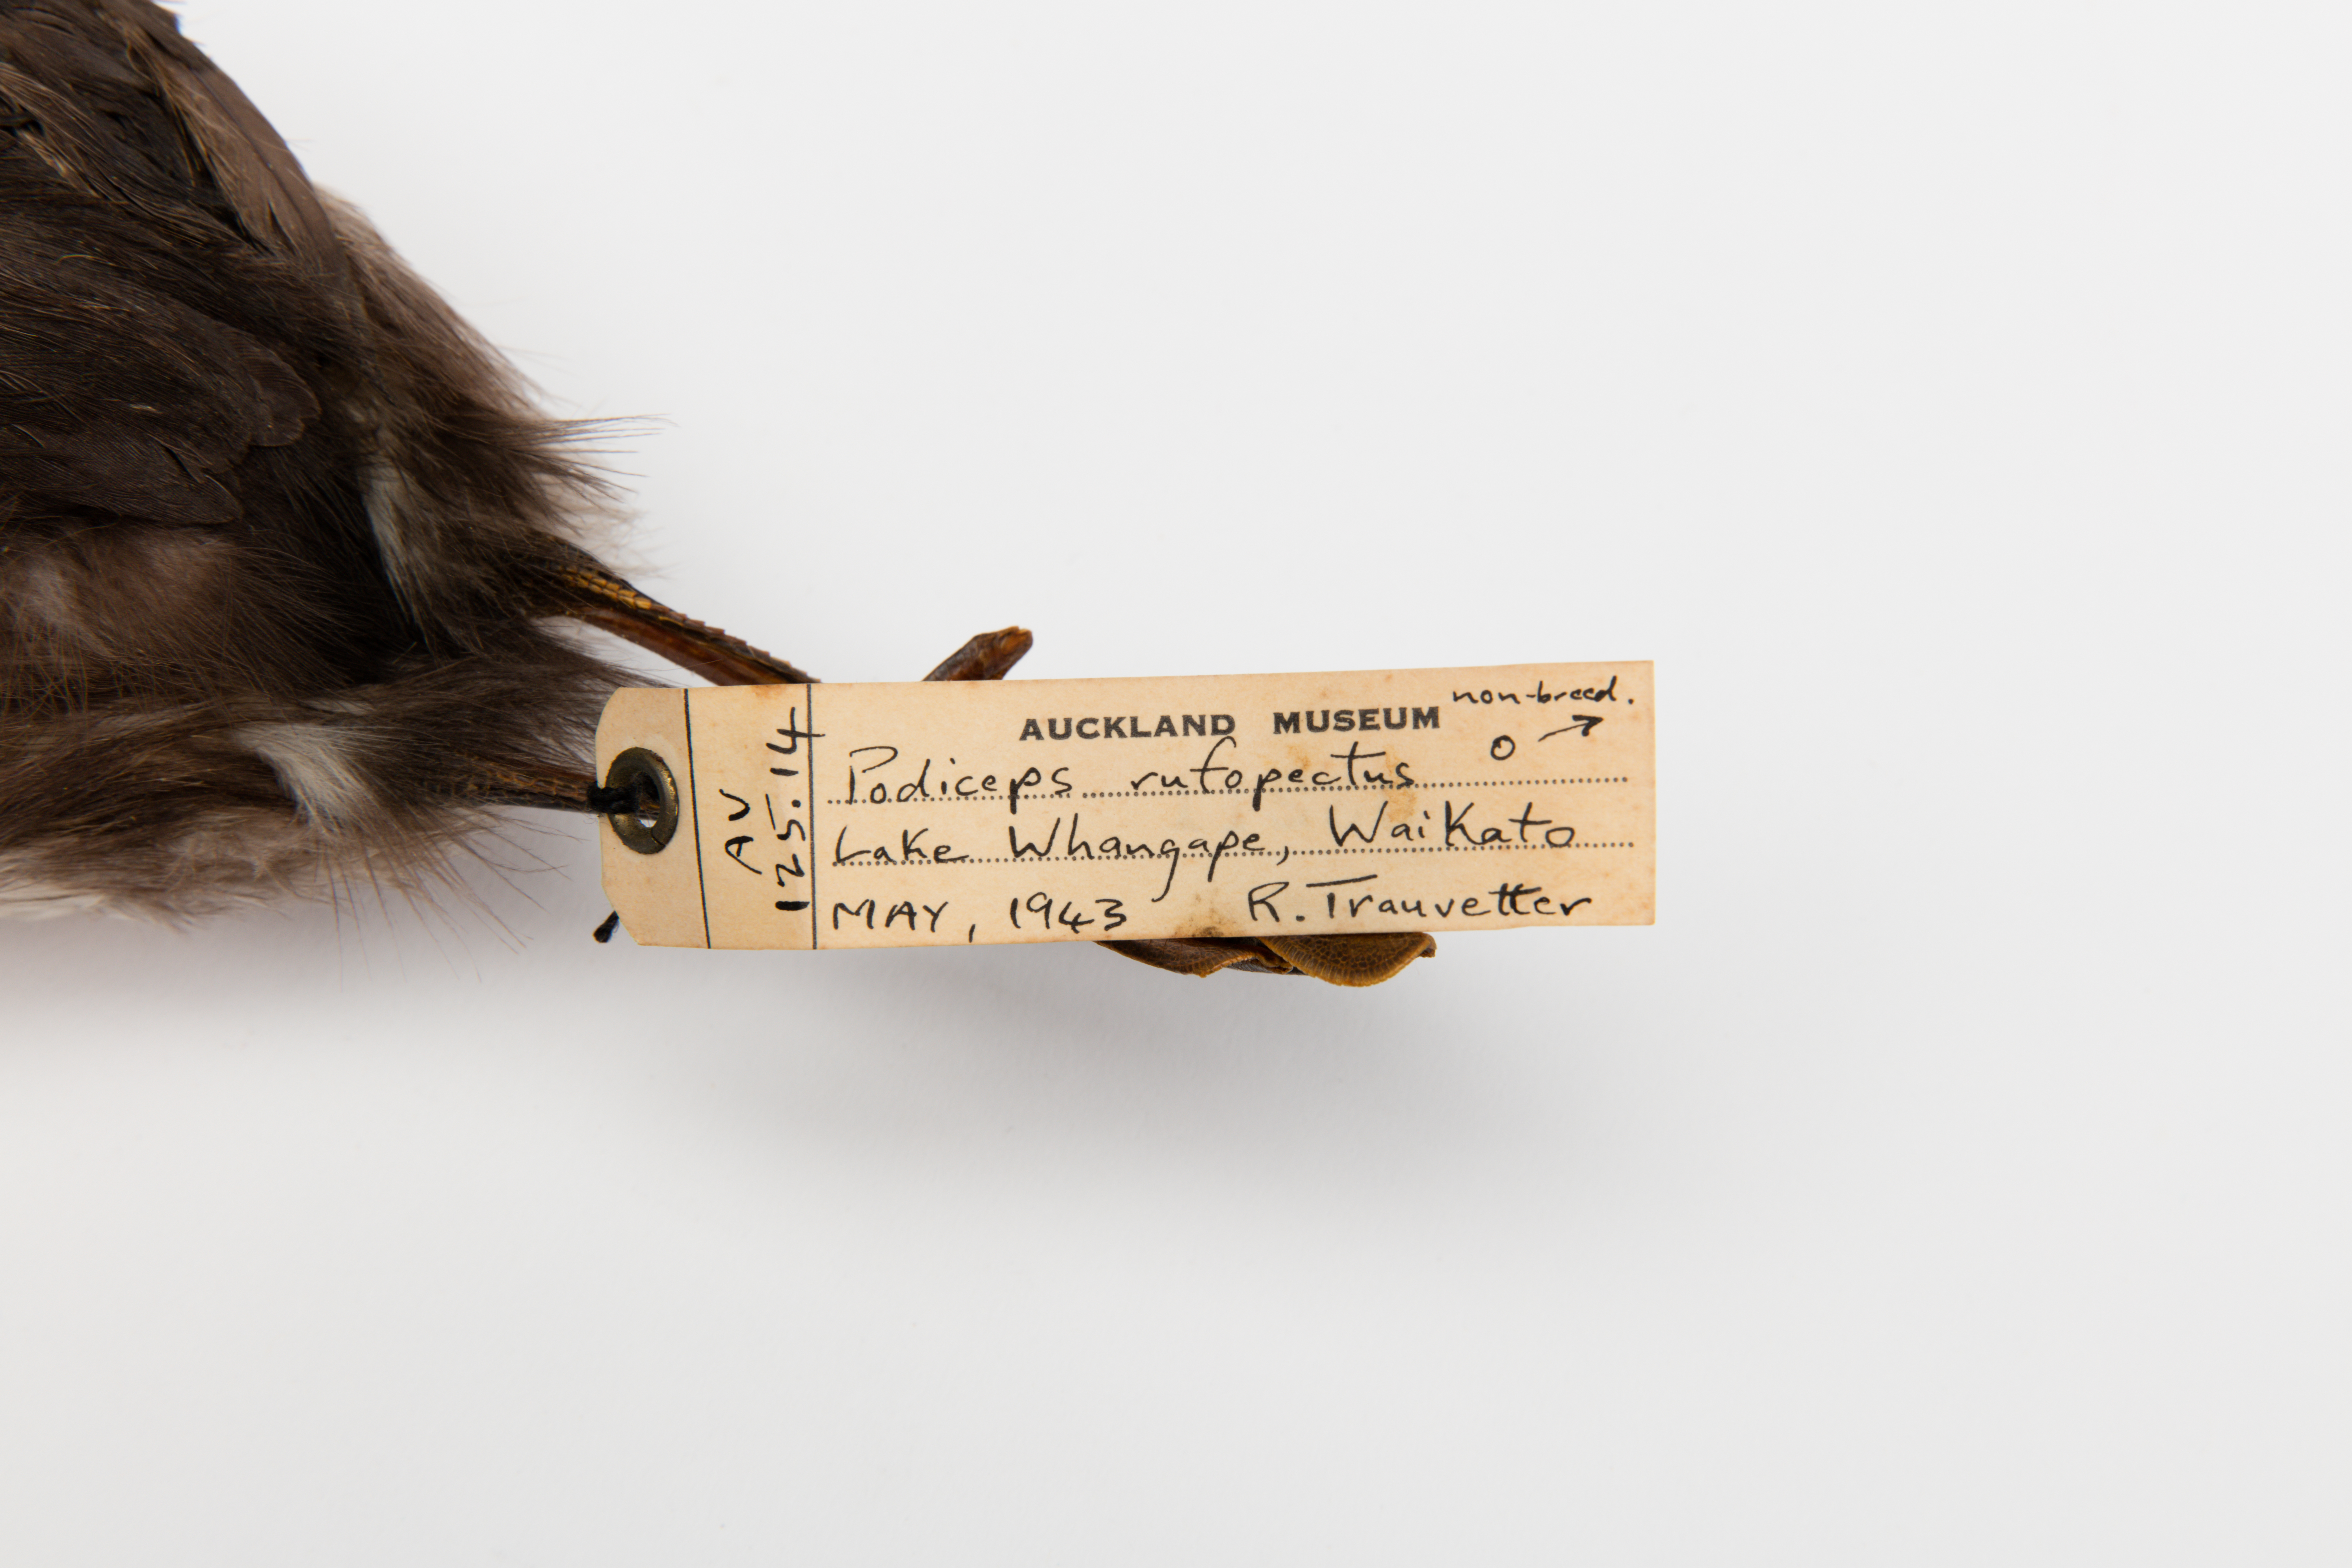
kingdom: Animalia
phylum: Chordata
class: Aves
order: Podicipediformes
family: Podicipedidae
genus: Poliocephalus
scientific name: Poliocephalus rufopectus
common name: New zealand grebe
